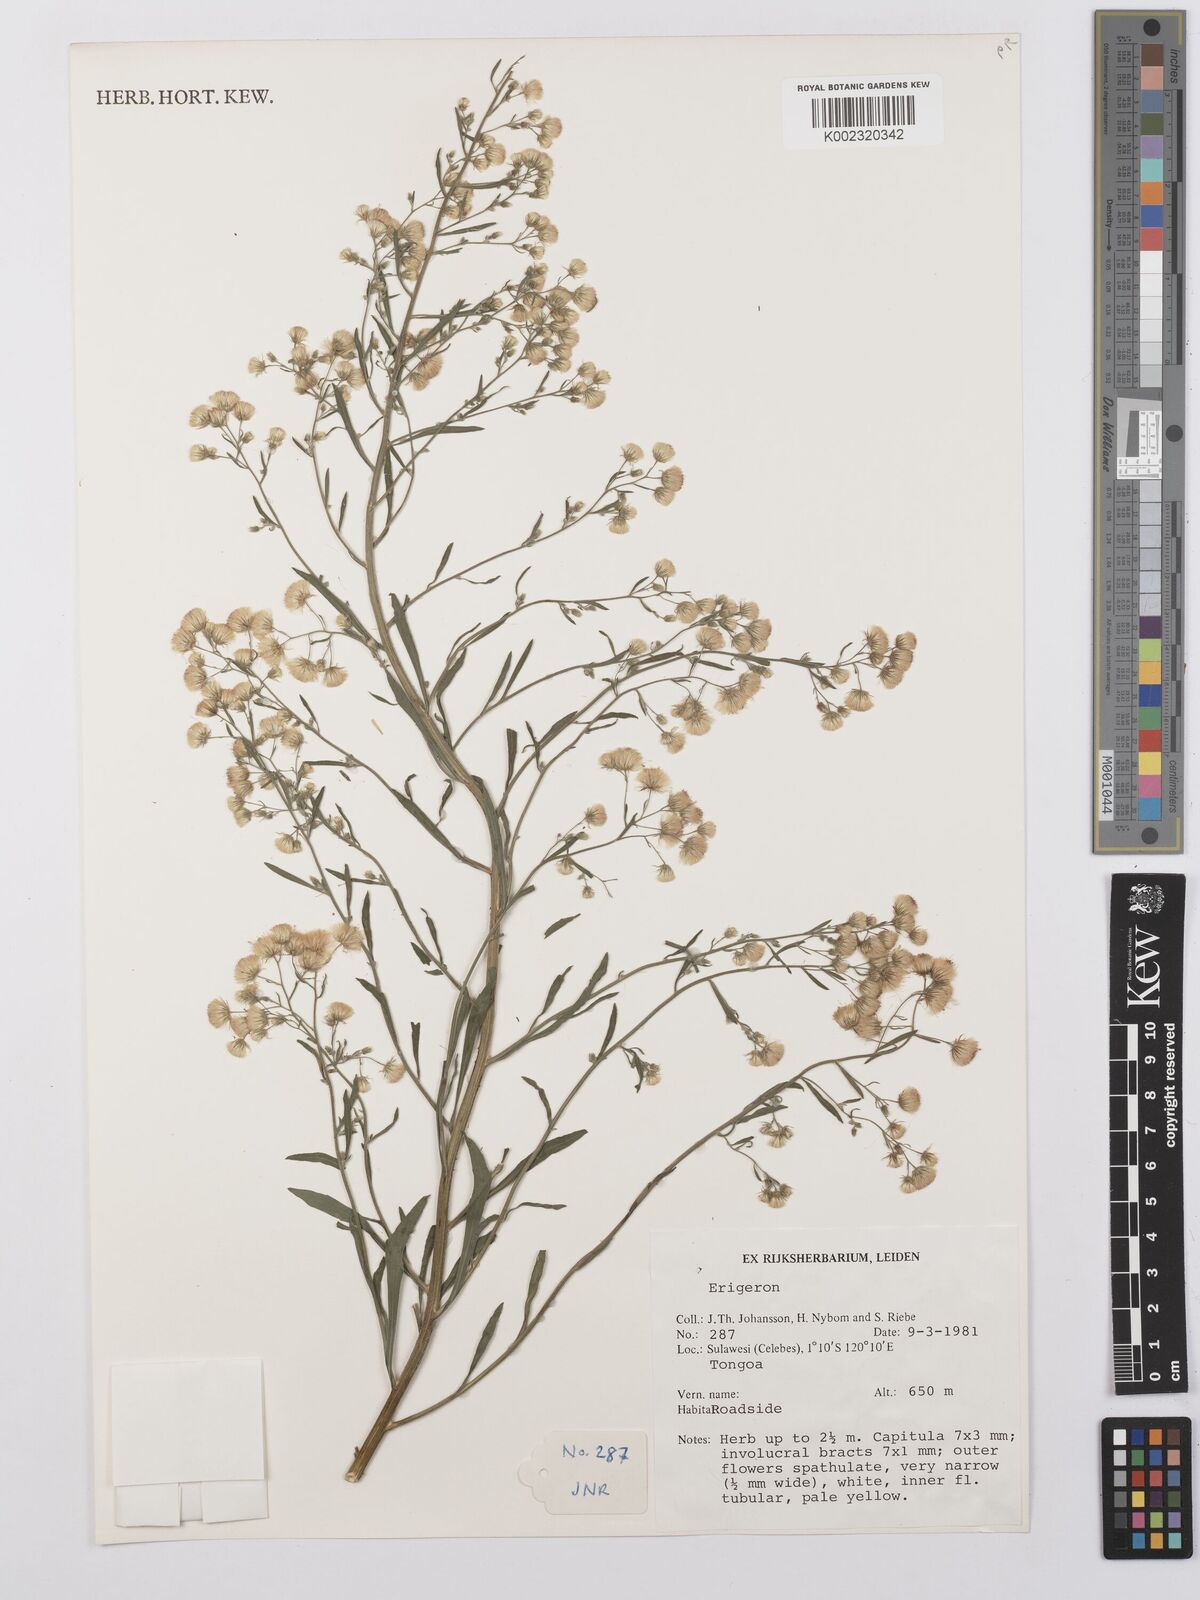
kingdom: Plantae
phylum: Tracheophyta
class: Magnoliopsida
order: Asterales
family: Asteraceae
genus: Conyza
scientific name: Conyza
